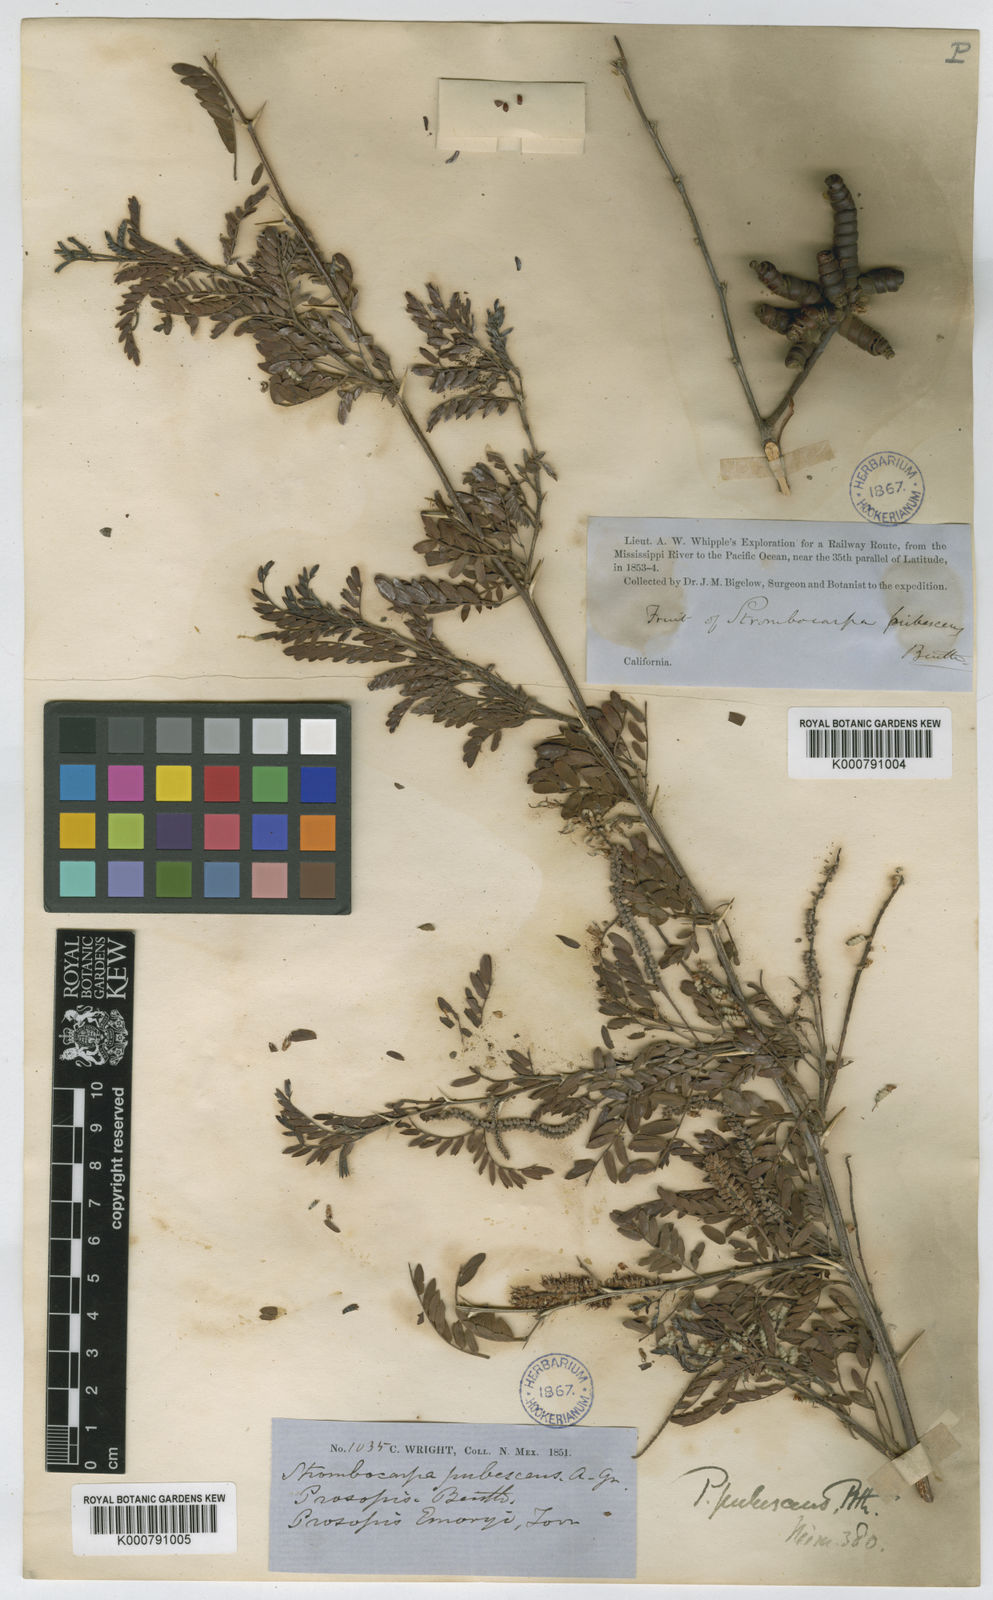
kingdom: Plantae
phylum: Tracheophyta
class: Magnoliopsida
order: Fabales
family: Fabaceae
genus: Prosopis
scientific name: Prosopis pubescens
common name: Screw-bean
